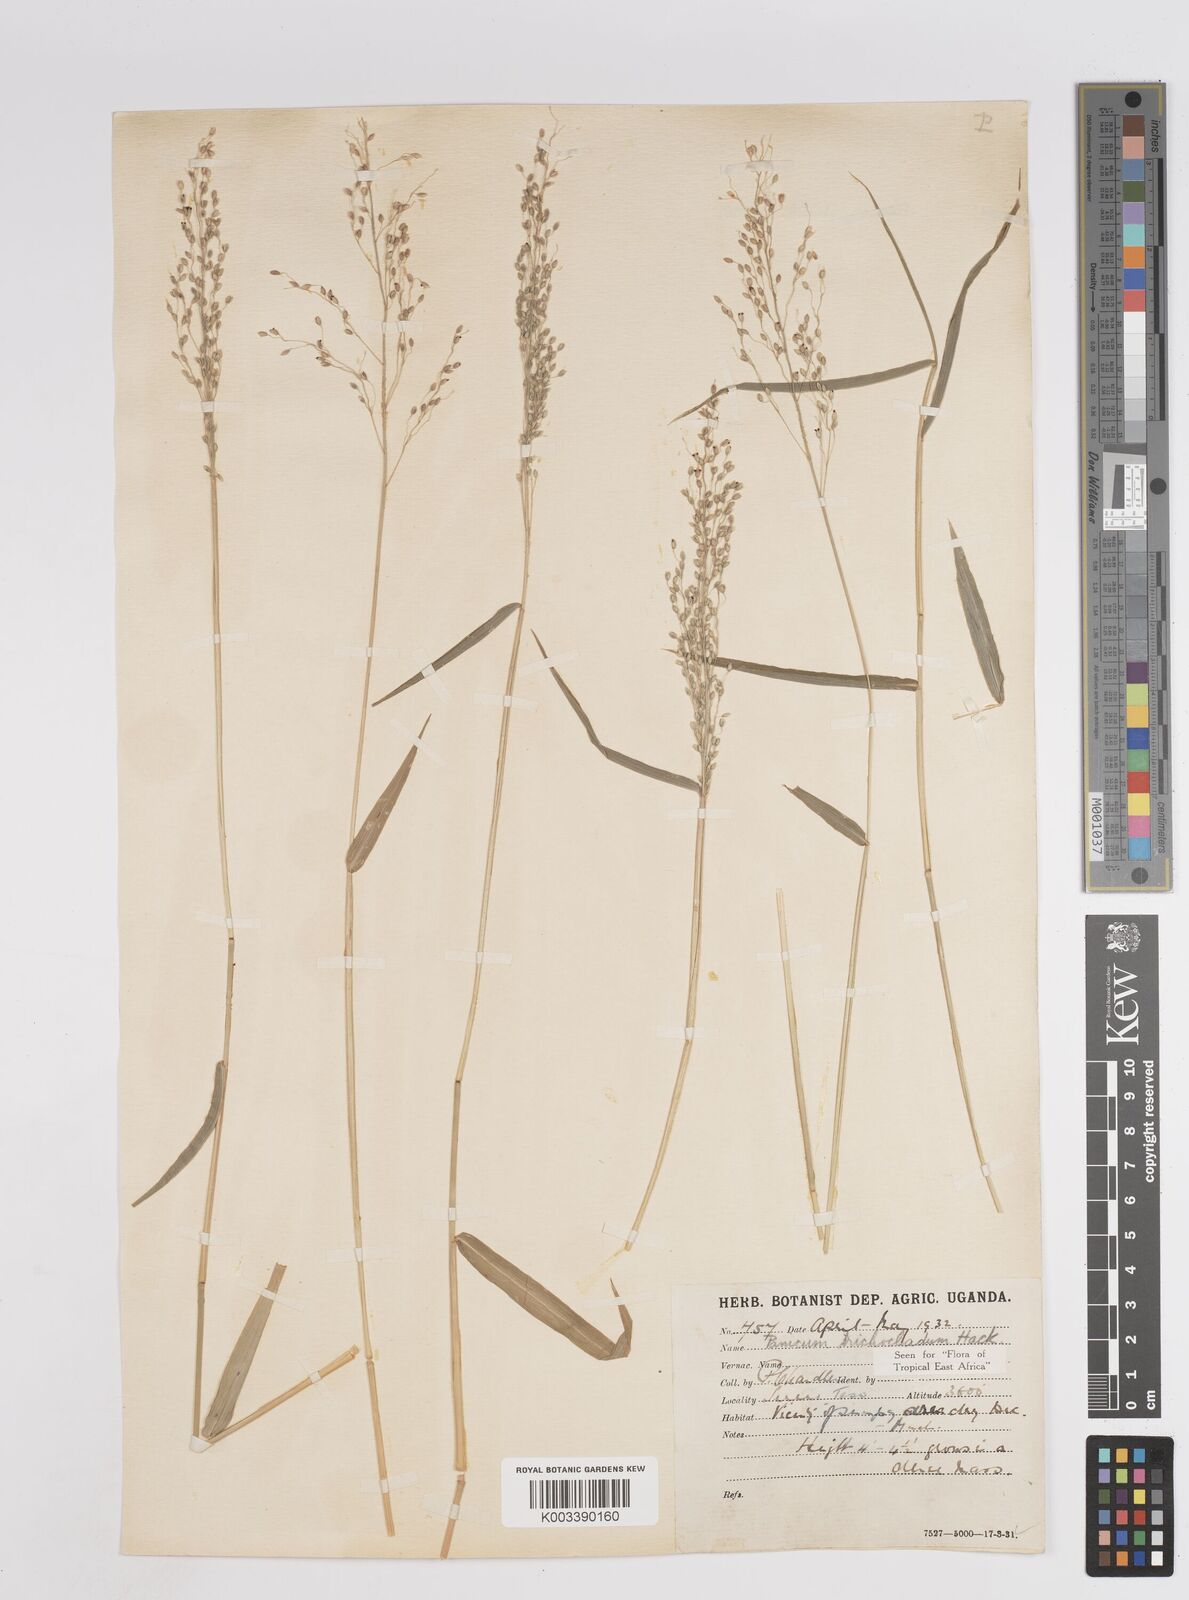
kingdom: Plantae
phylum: Tracheophyta
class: Liliopsida
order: Poales
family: Poaceae
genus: Panicum
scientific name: Panicum trichocladum
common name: Donkey grass
